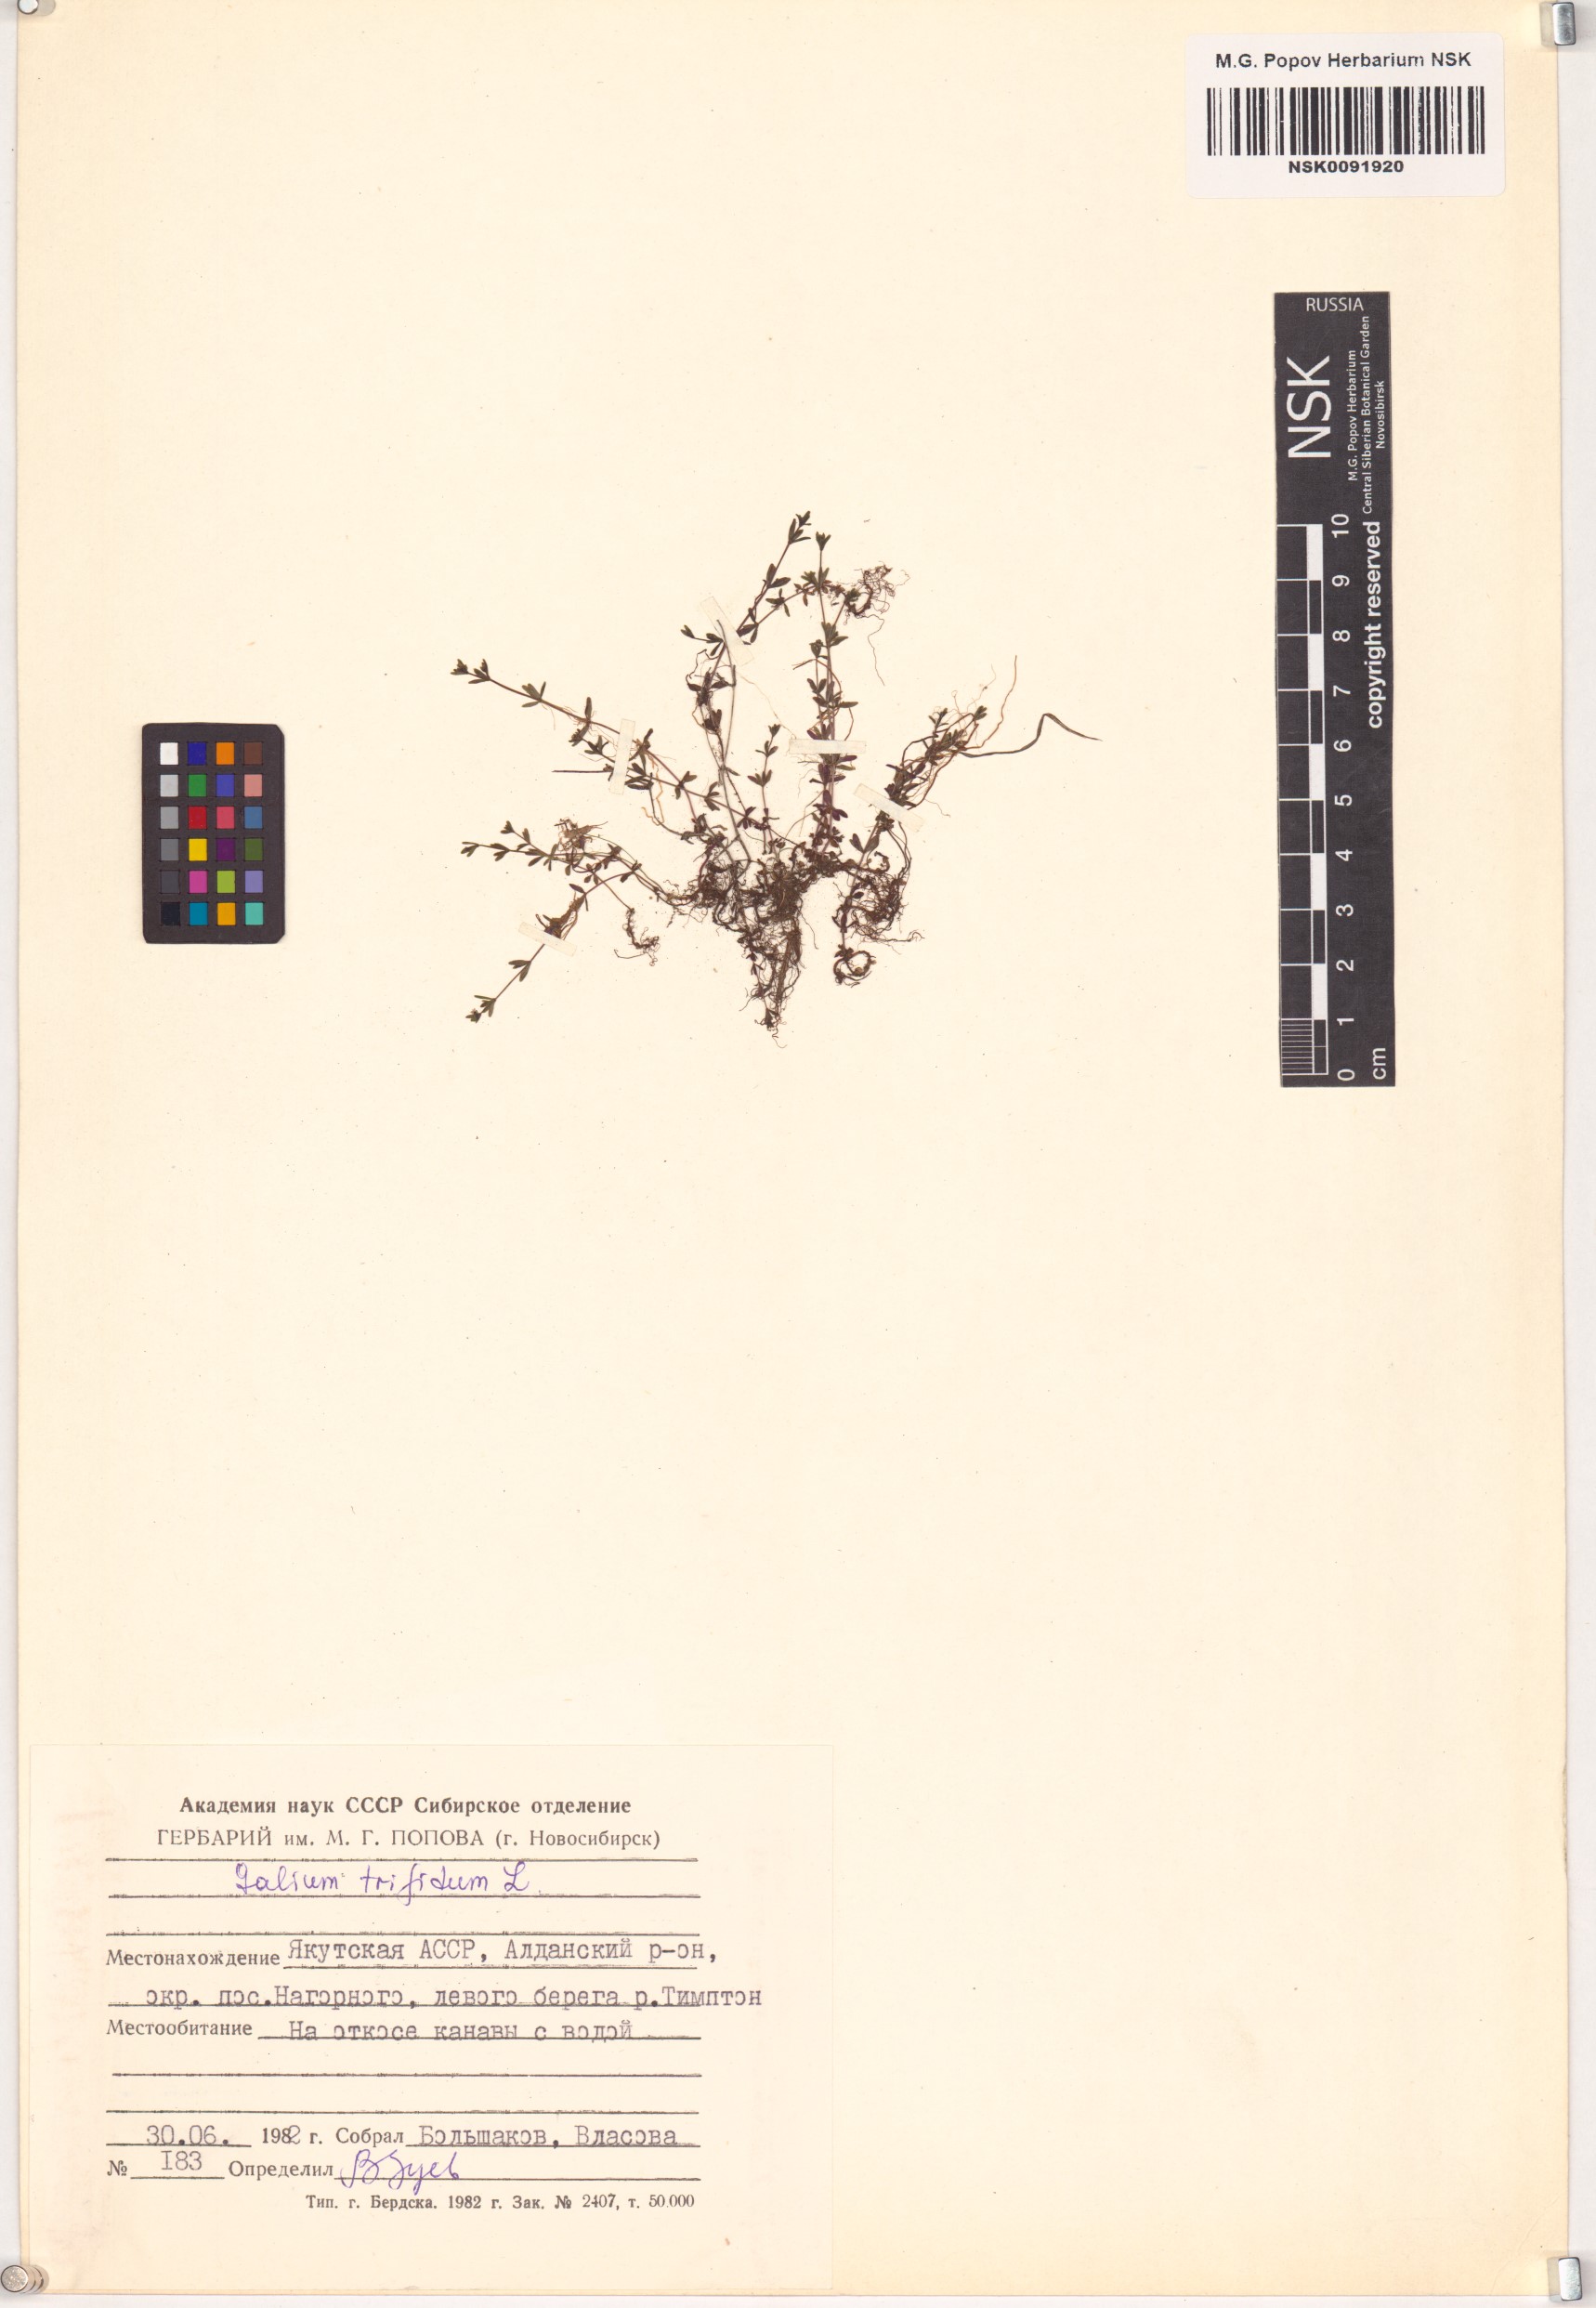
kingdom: Plantae
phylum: Tracheophyta
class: Magnoliopsida
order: Gentianales
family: Rubiaceae
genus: Galium
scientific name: Galium trifidum
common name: Small bedstraw
